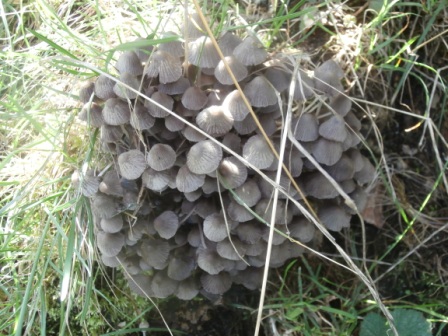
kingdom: Fungi
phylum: Basidiomycota
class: Agaricomycetes
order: Agaricales
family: Psathyrellaceae
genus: Coprinellus
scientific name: Coprinellus disseminatus
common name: bredsået blækhat
